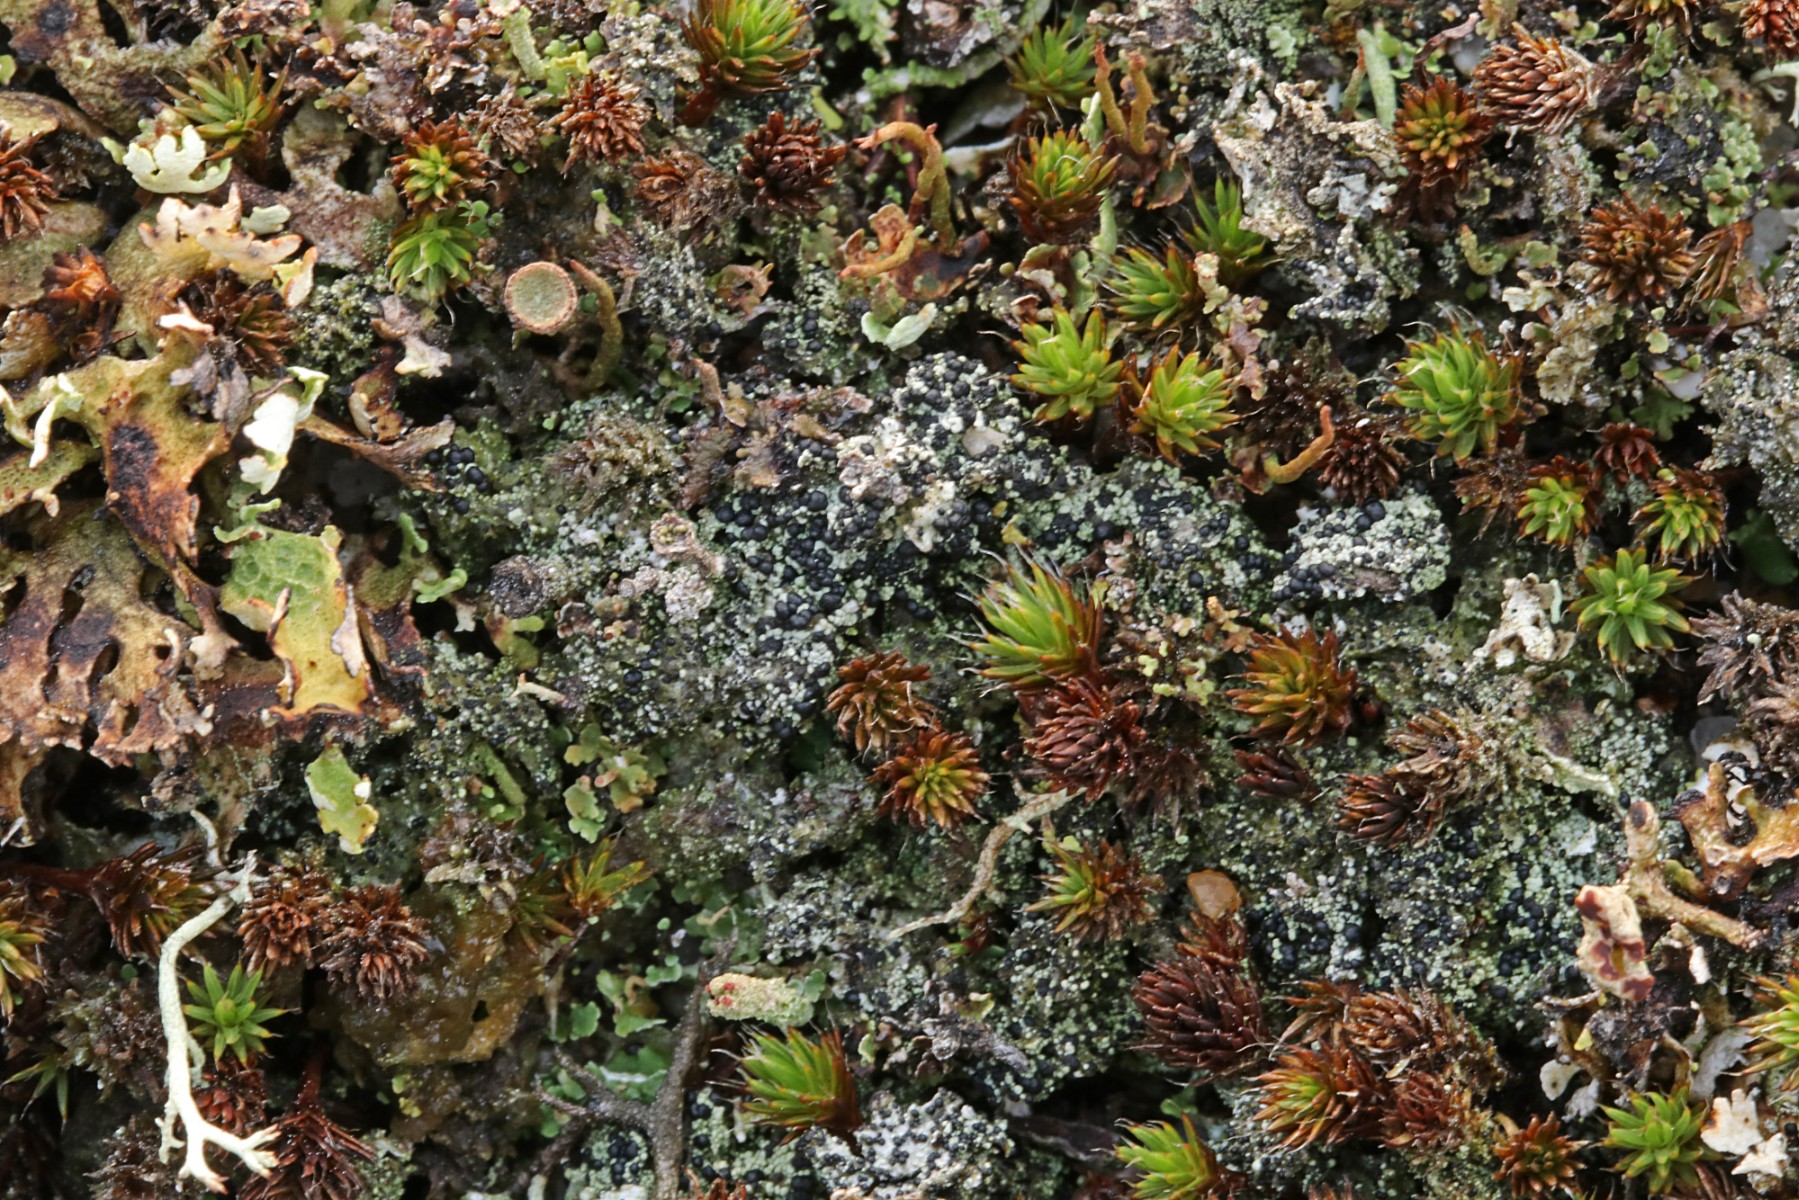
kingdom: Fungi
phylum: Ascomycota
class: Lecanoromycetes
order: Lecanorales
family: Byssolomataceae
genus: Micarea
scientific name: Micarea lignaria
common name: tørve-knaplav
